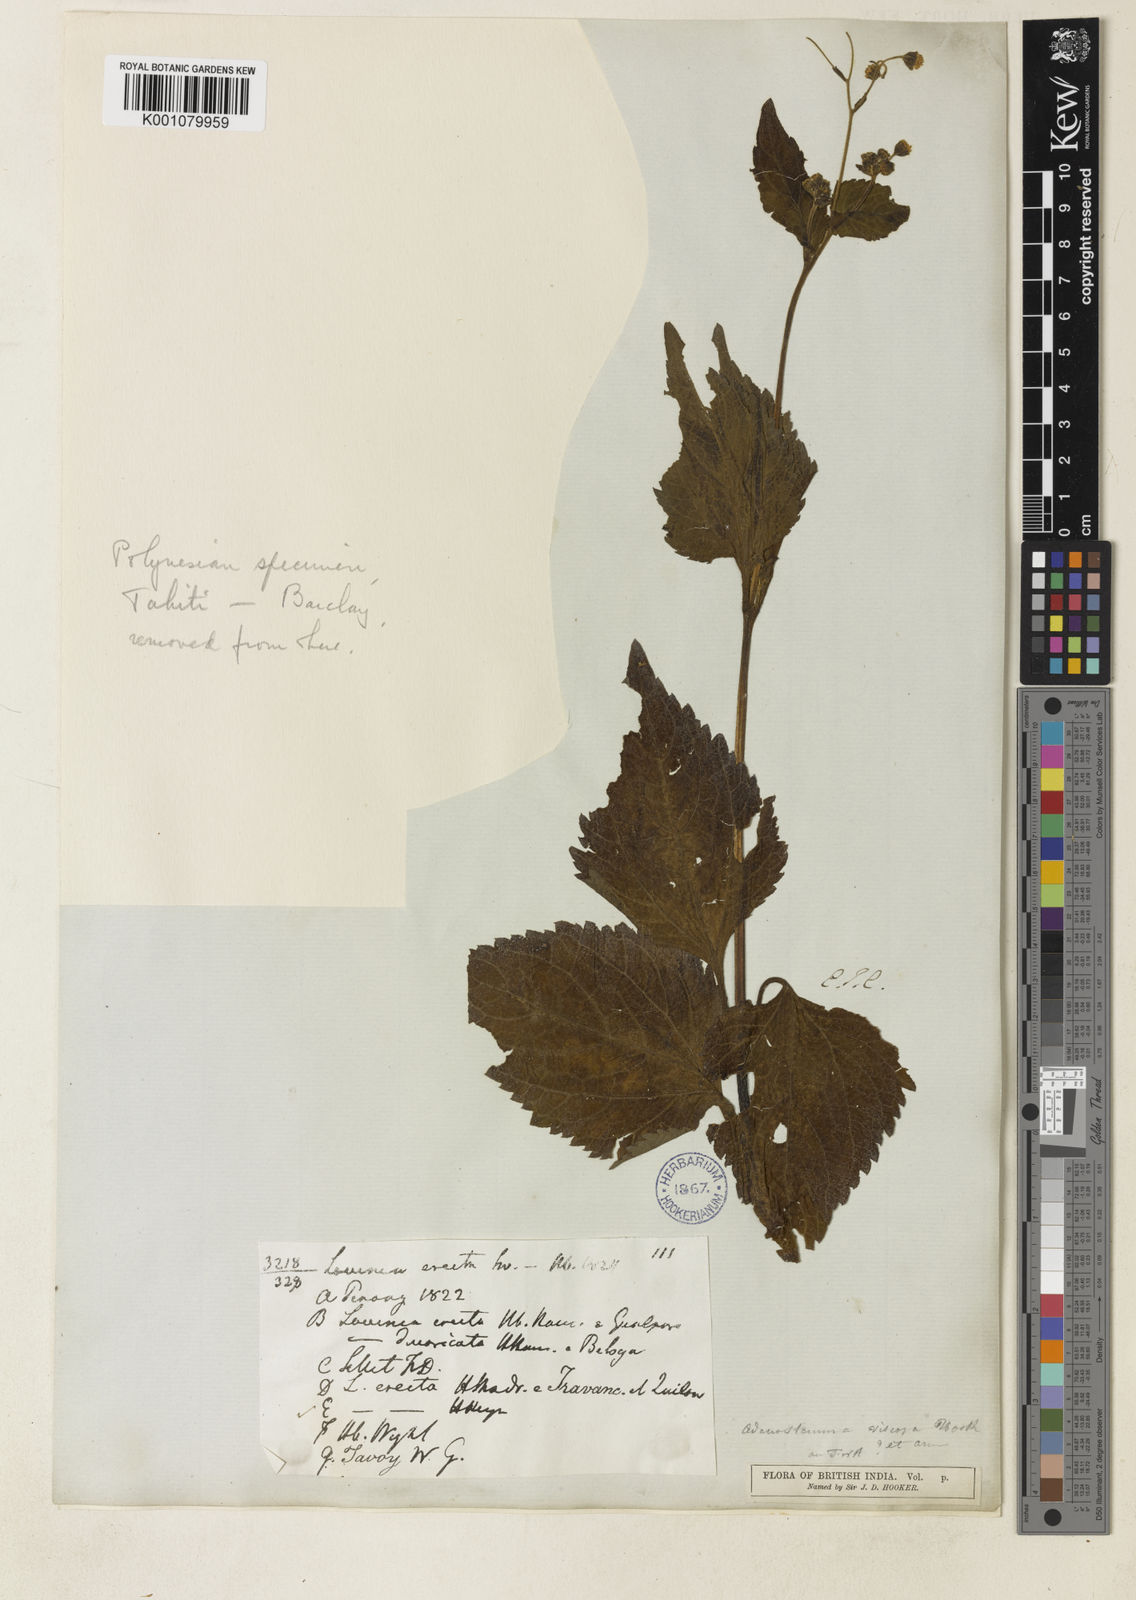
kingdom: Plantae
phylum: Tracheophyta
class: Magnoliopsida
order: Asterales
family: Asteraceae
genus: Adenostemma
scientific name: Adenostemma viscosum
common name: Dungweed
